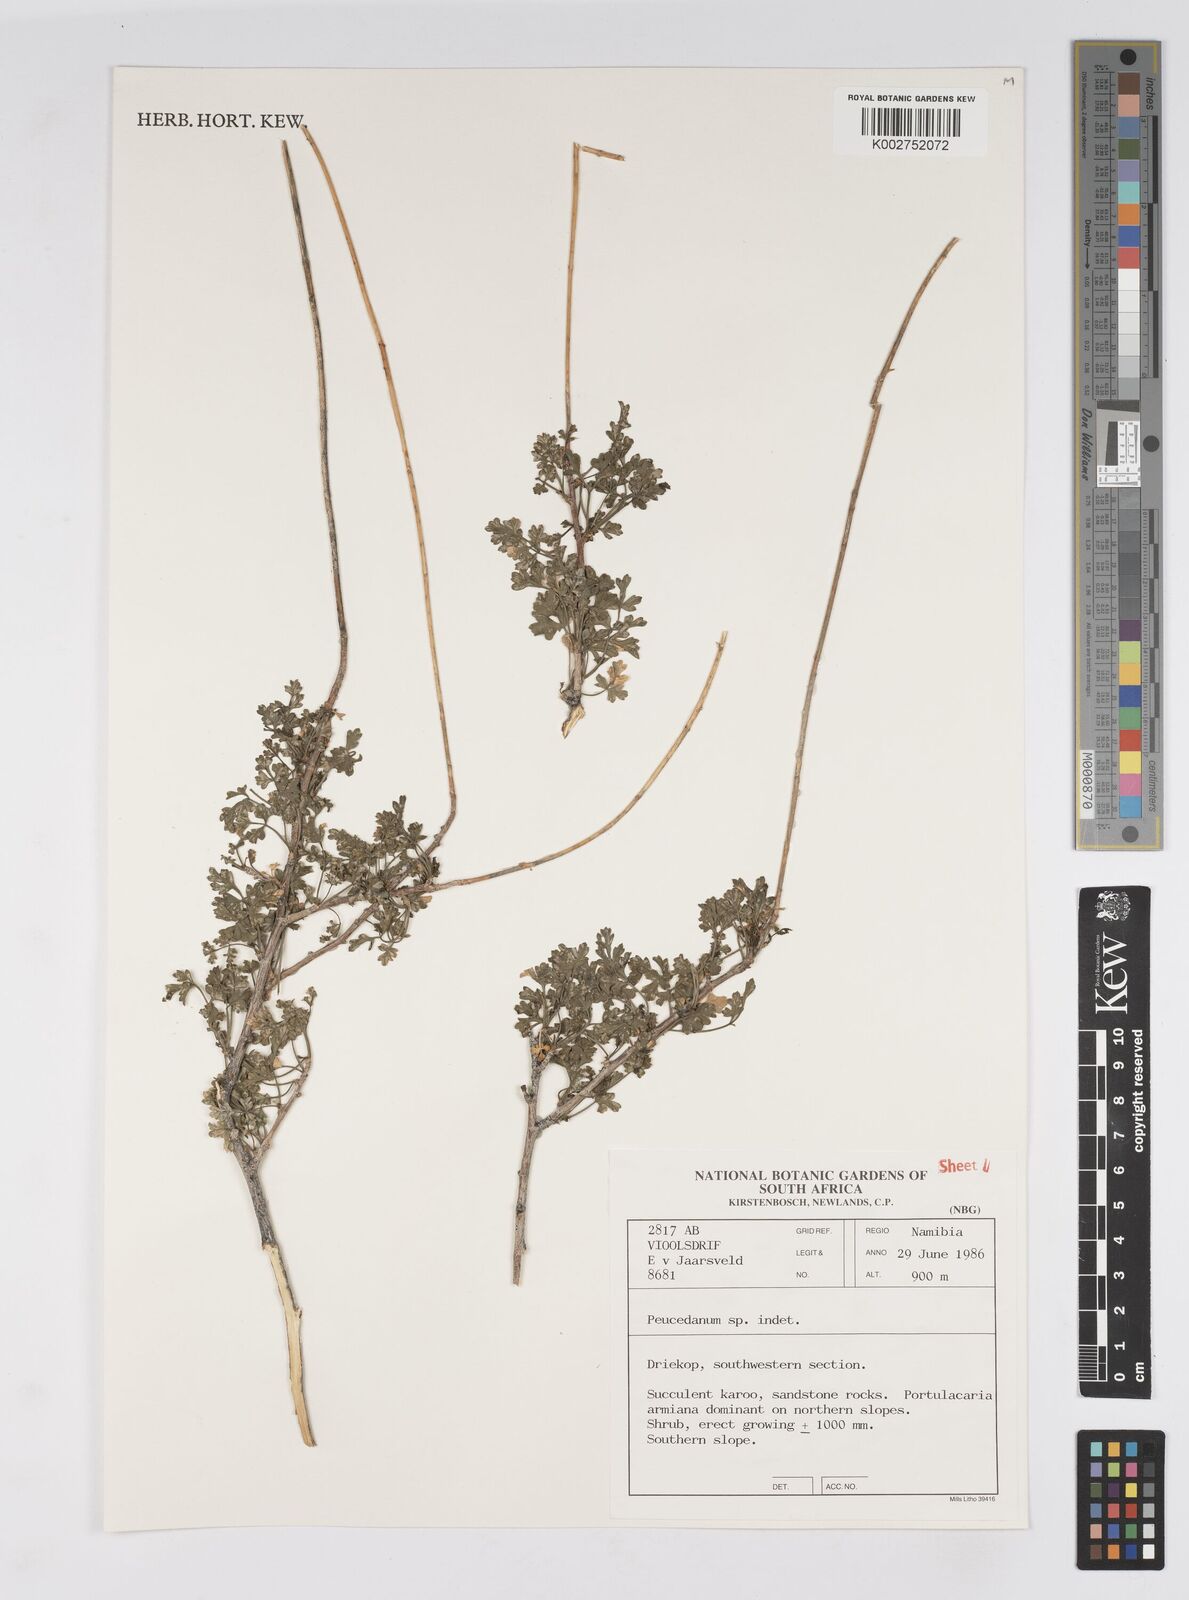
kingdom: Plantae
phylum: Tracheophyta
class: Magnoliopsida
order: Apiales
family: Apiaceae
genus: Anginon
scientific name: Anginon verticillatum
